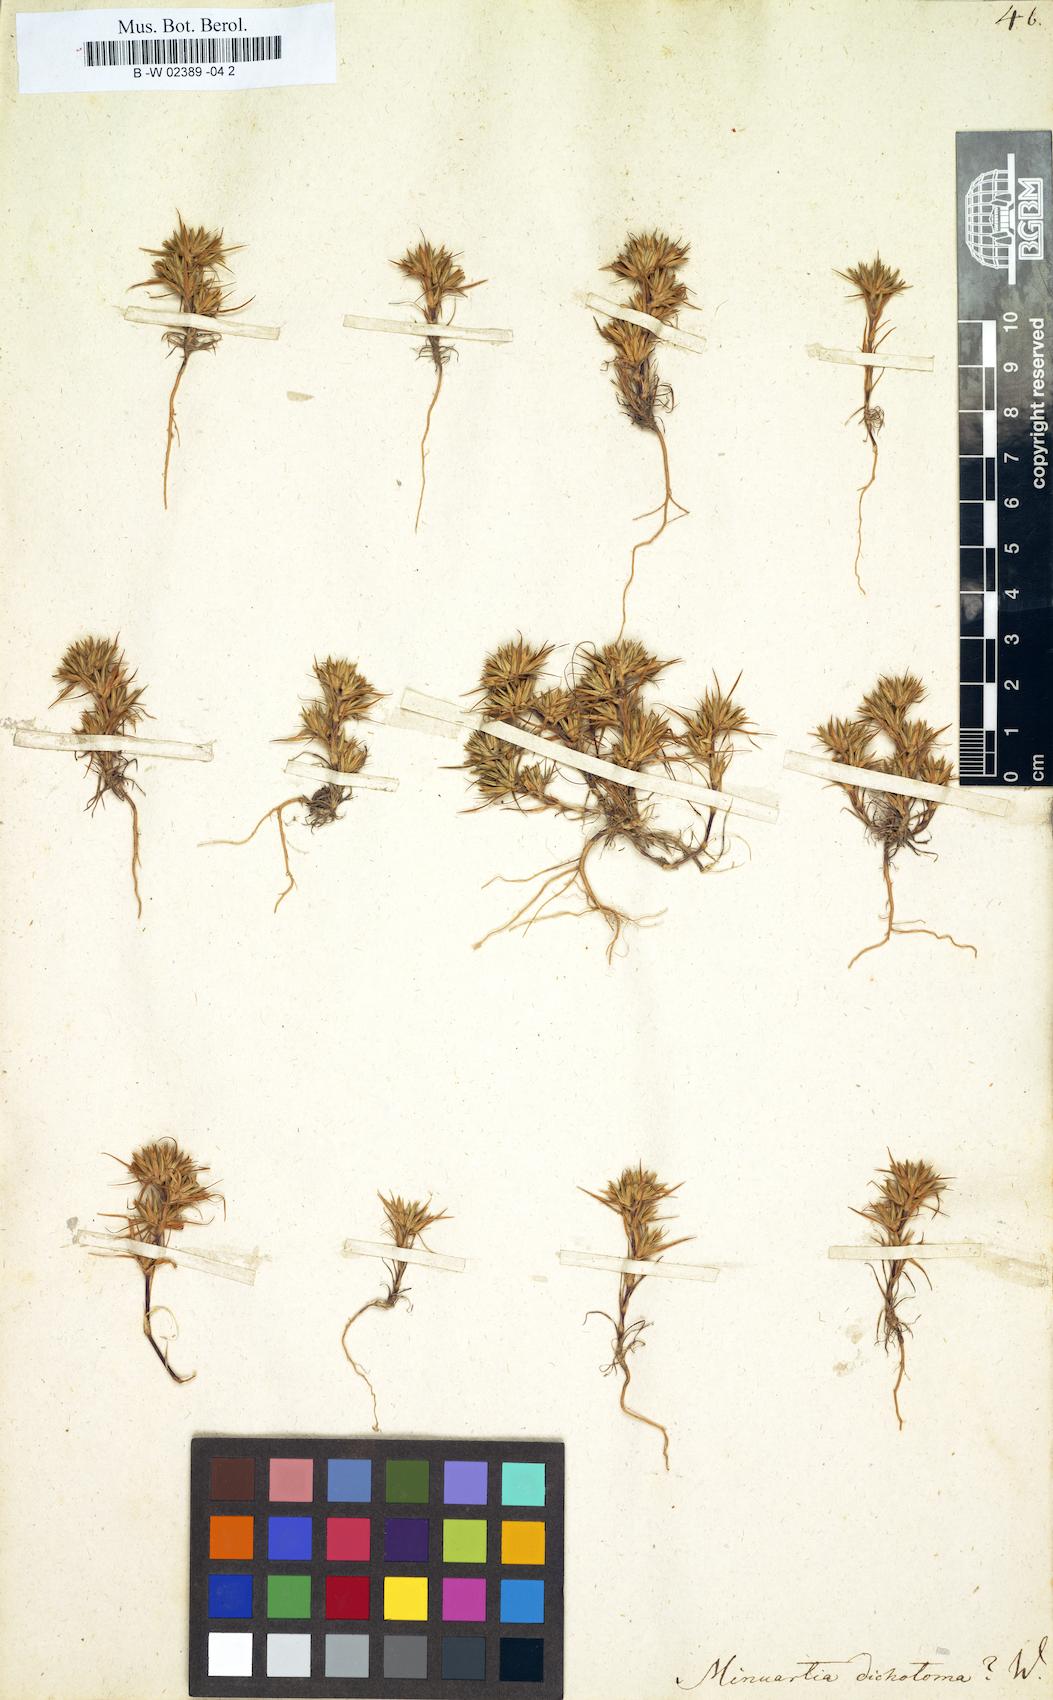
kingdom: Plantae
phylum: Tracheophyta
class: Magnoliopsida
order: Caryophyllales
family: Caryophyllaceae
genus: Minuartia
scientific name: Minuartia dichotoma
